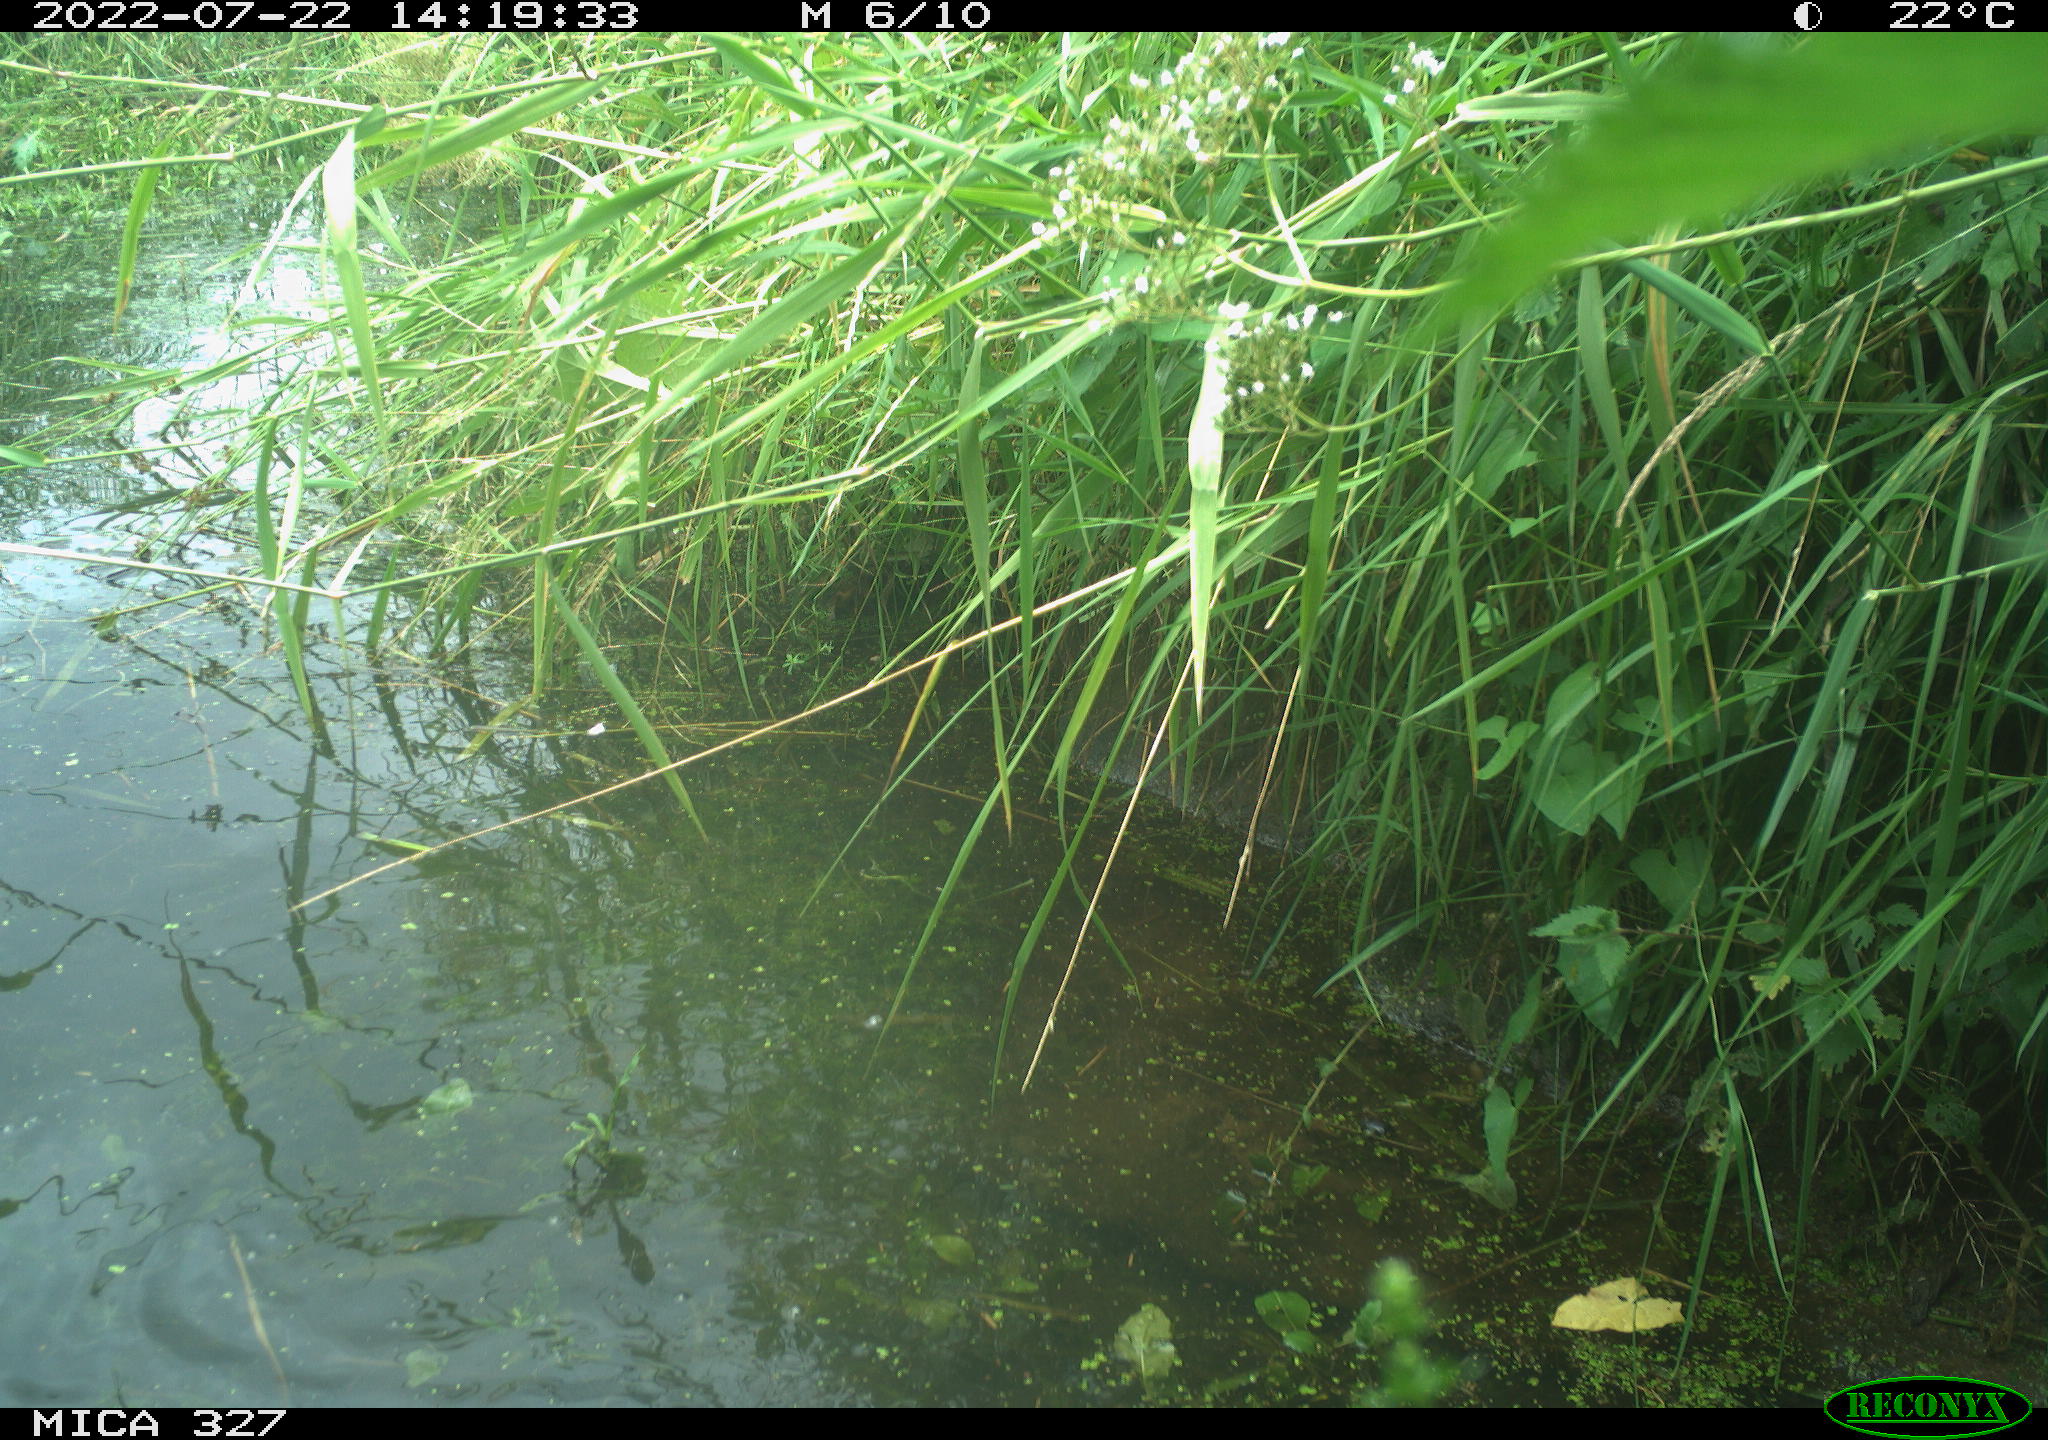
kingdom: Animalia
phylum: Chordata
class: Aves
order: Gruiformes
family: Rallidae
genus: Gallinula
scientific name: Gallinula chloropus
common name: Common moorhen
